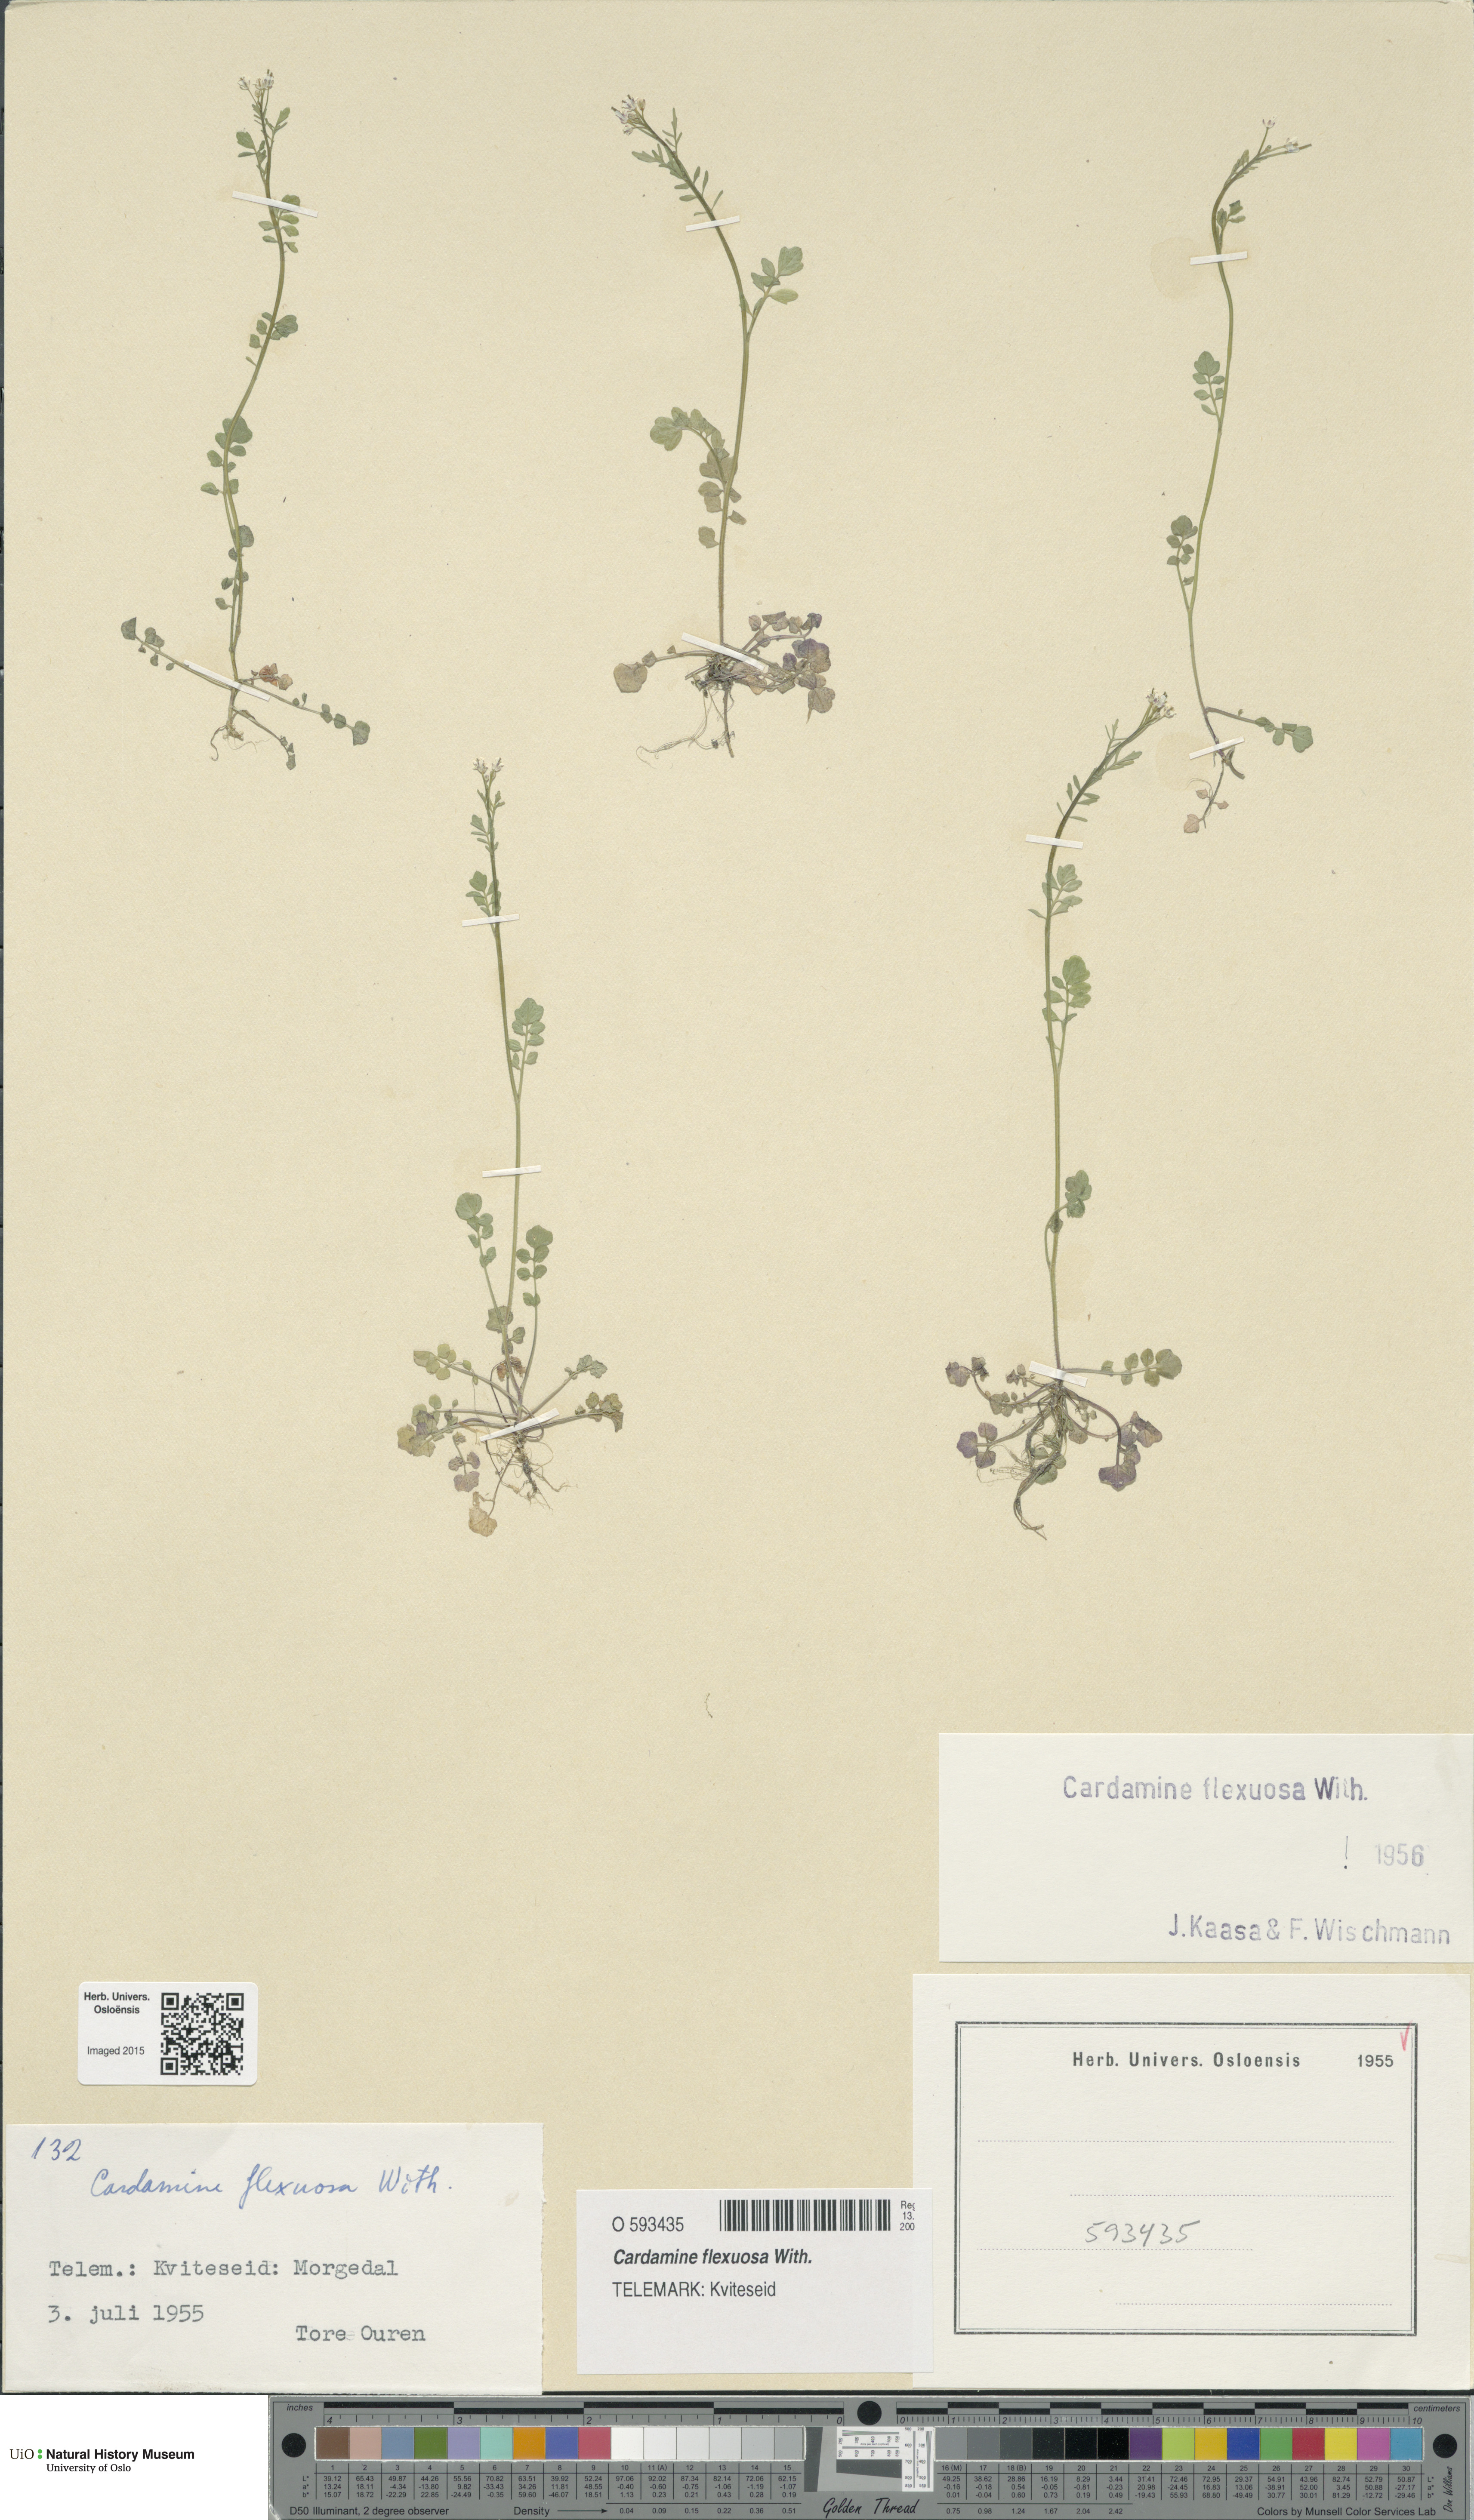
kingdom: Plantae
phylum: Tracheophyta
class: Magnoliopsida
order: Brassicales
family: Brassicaceae
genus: Cardamine
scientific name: Cardamine flexuosa
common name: Woodland bittercress
